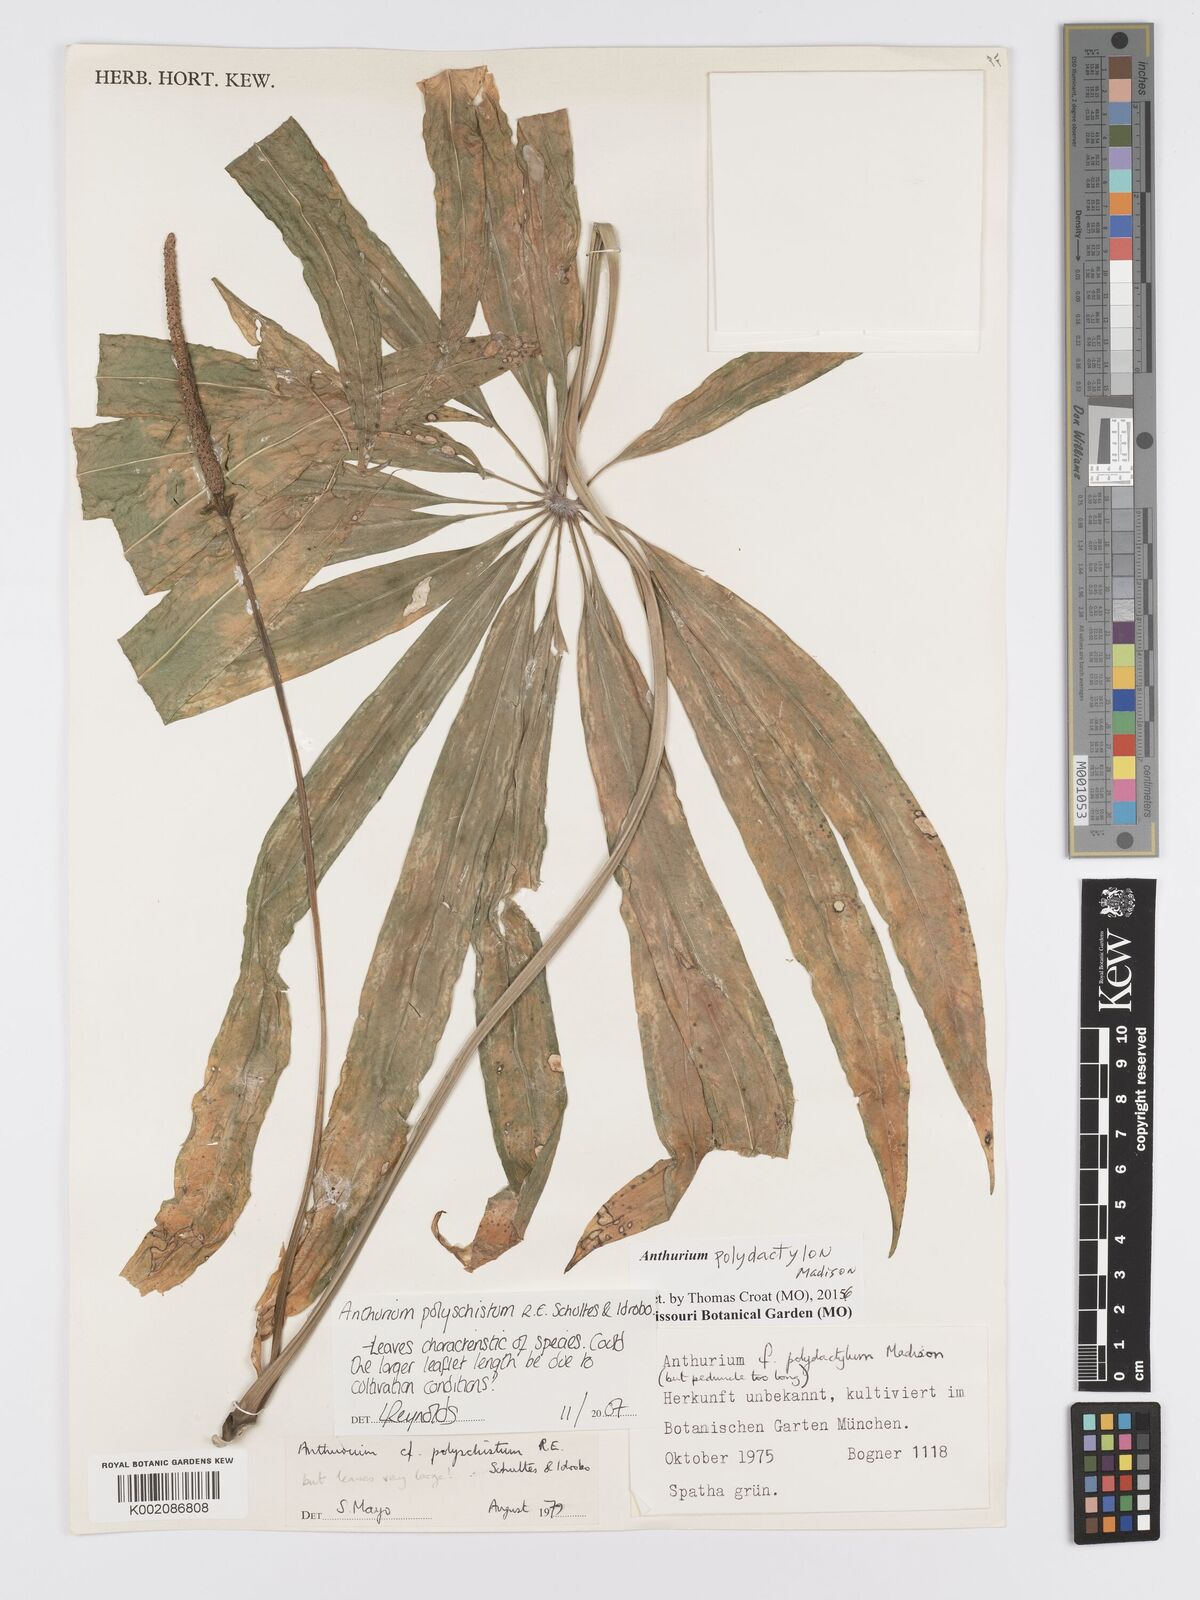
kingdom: Plantae
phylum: Tracheophyta
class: Liliopsida
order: Alismatales
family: Araceae
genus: Anthurium
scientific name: Anthurium polydactylum
